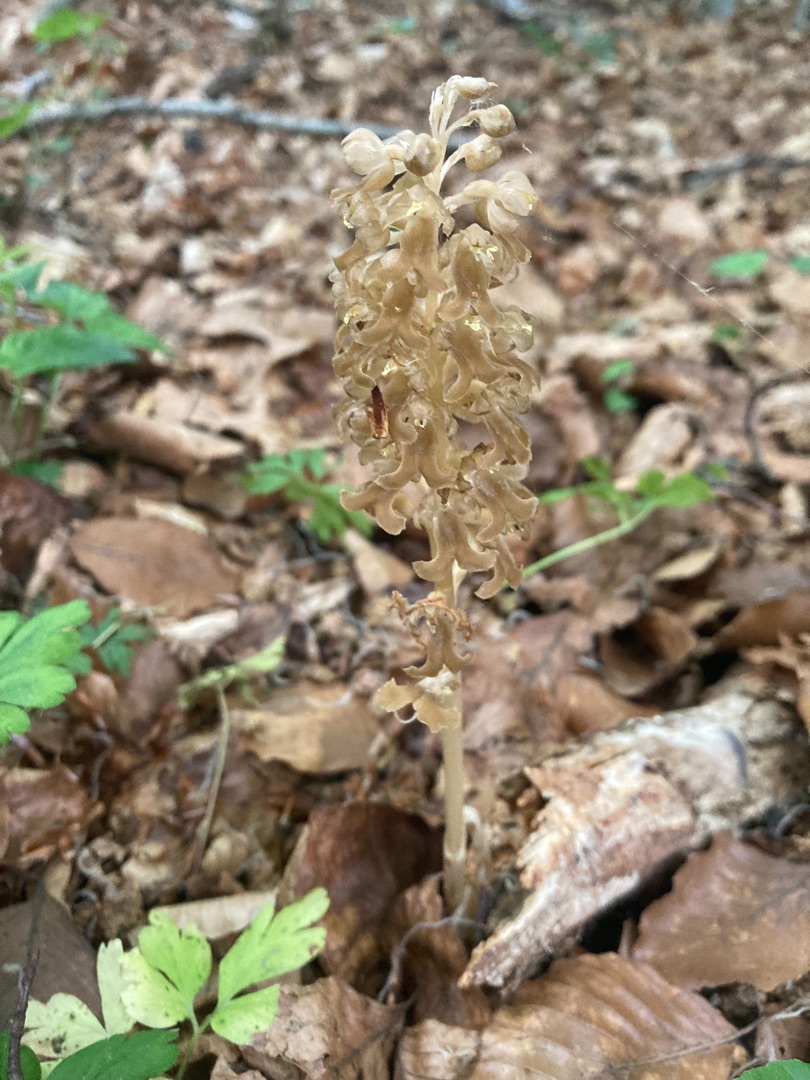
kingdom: Plantae
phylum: Tracheophyta
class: Liliopsida
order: Asparagales
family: Orchidaceae
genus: Neottia
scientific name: Neottia nidus-avis
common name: Rederod
